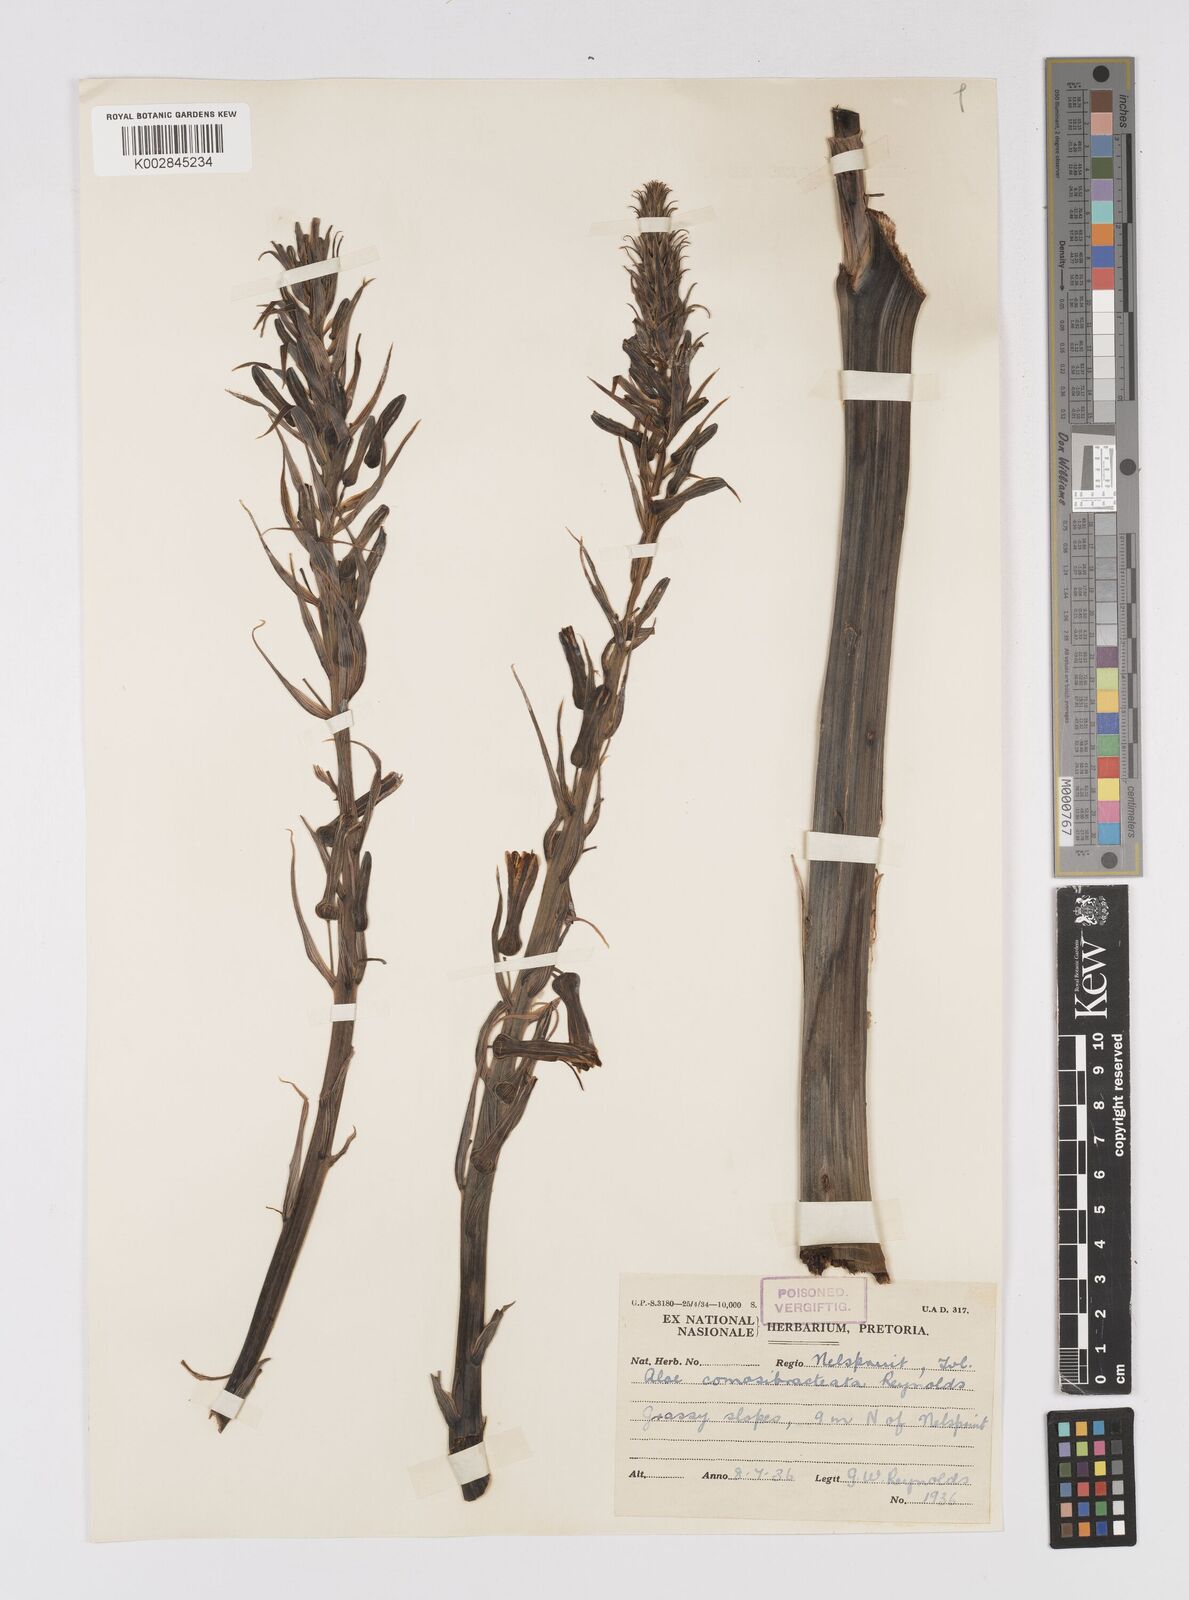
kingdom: Plantae
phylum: Tracheophyta
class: Liliopsida
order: Asparagales
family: Asphodelaceae
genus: Aloe
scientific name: Aloe davyana
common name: Spotted aloe
